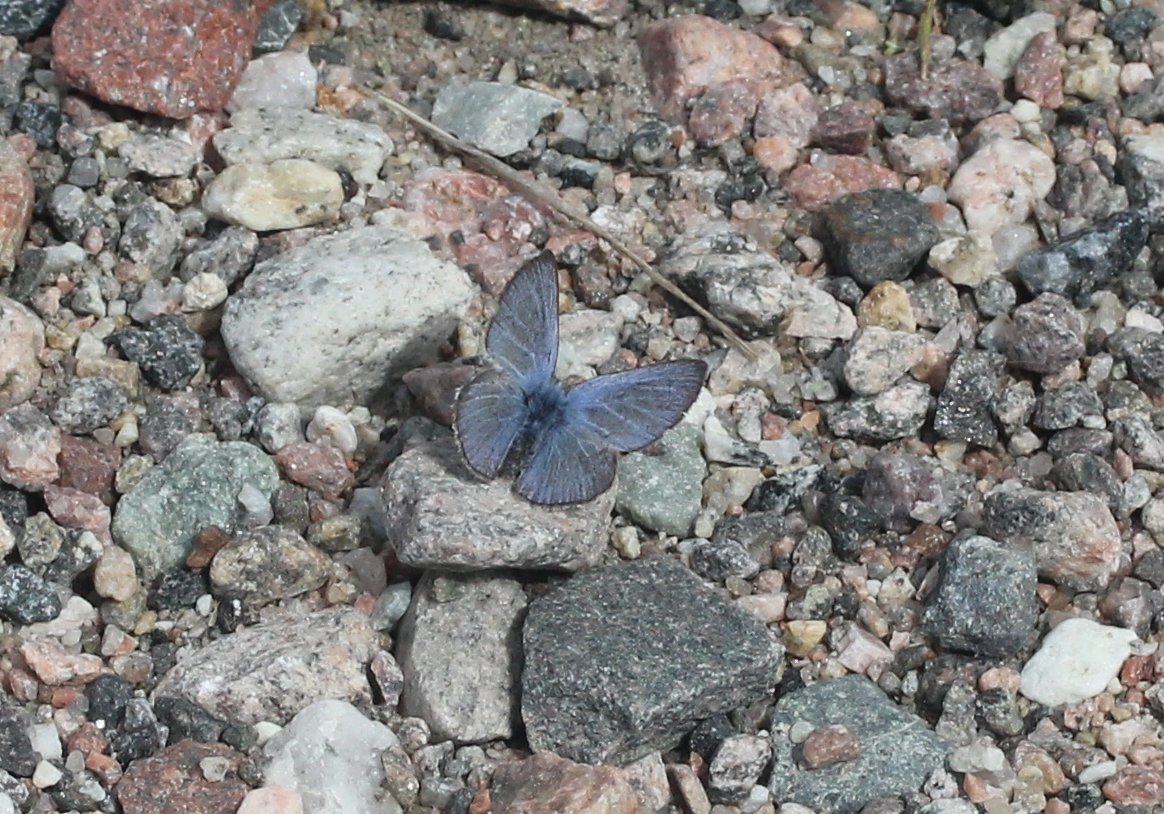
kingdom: Animalia
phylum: Arthropoda
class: Insecta
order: Lepidoptera
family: Lycaenidae
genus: Glaucopsyche
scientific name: Glaucopsyche lygdamus
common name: Silvery Blue
